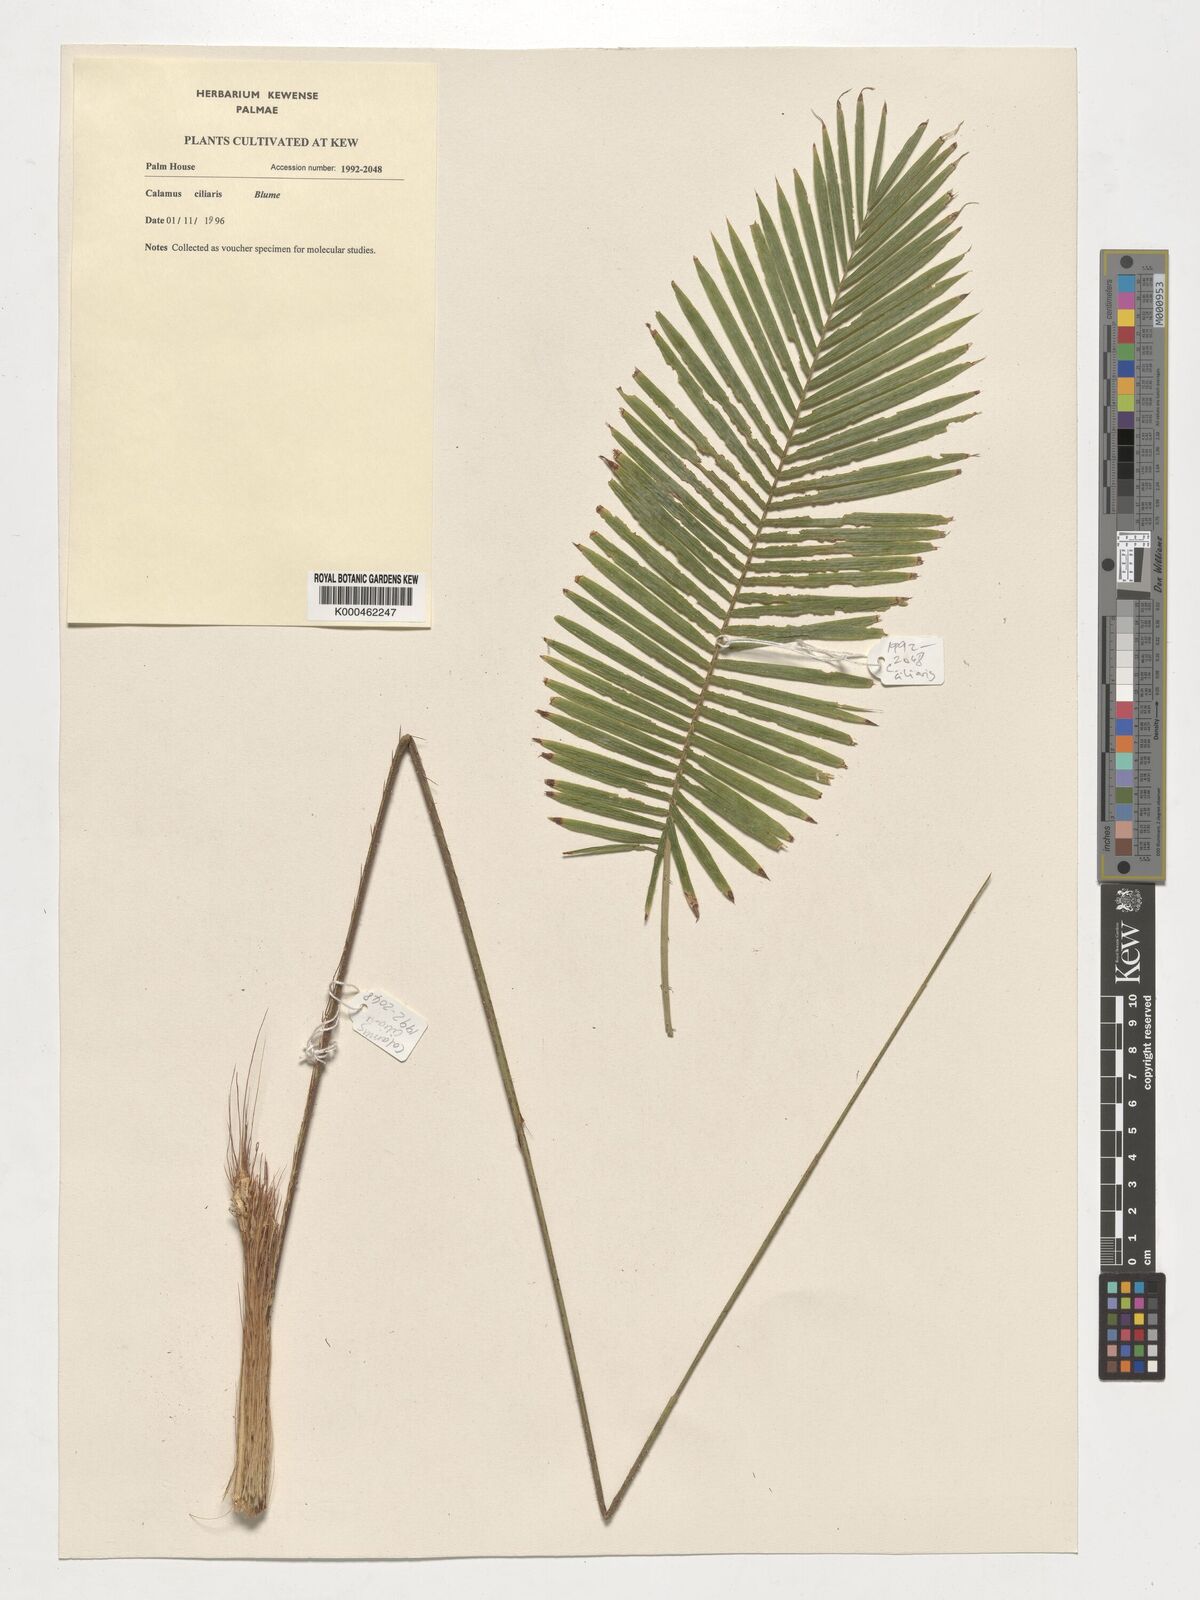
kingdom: Plantae
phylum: Tracheophyta
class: Liliopsida
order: Arecales
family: Arecaceae
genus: Calamus
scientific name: Calamus ciliaris
